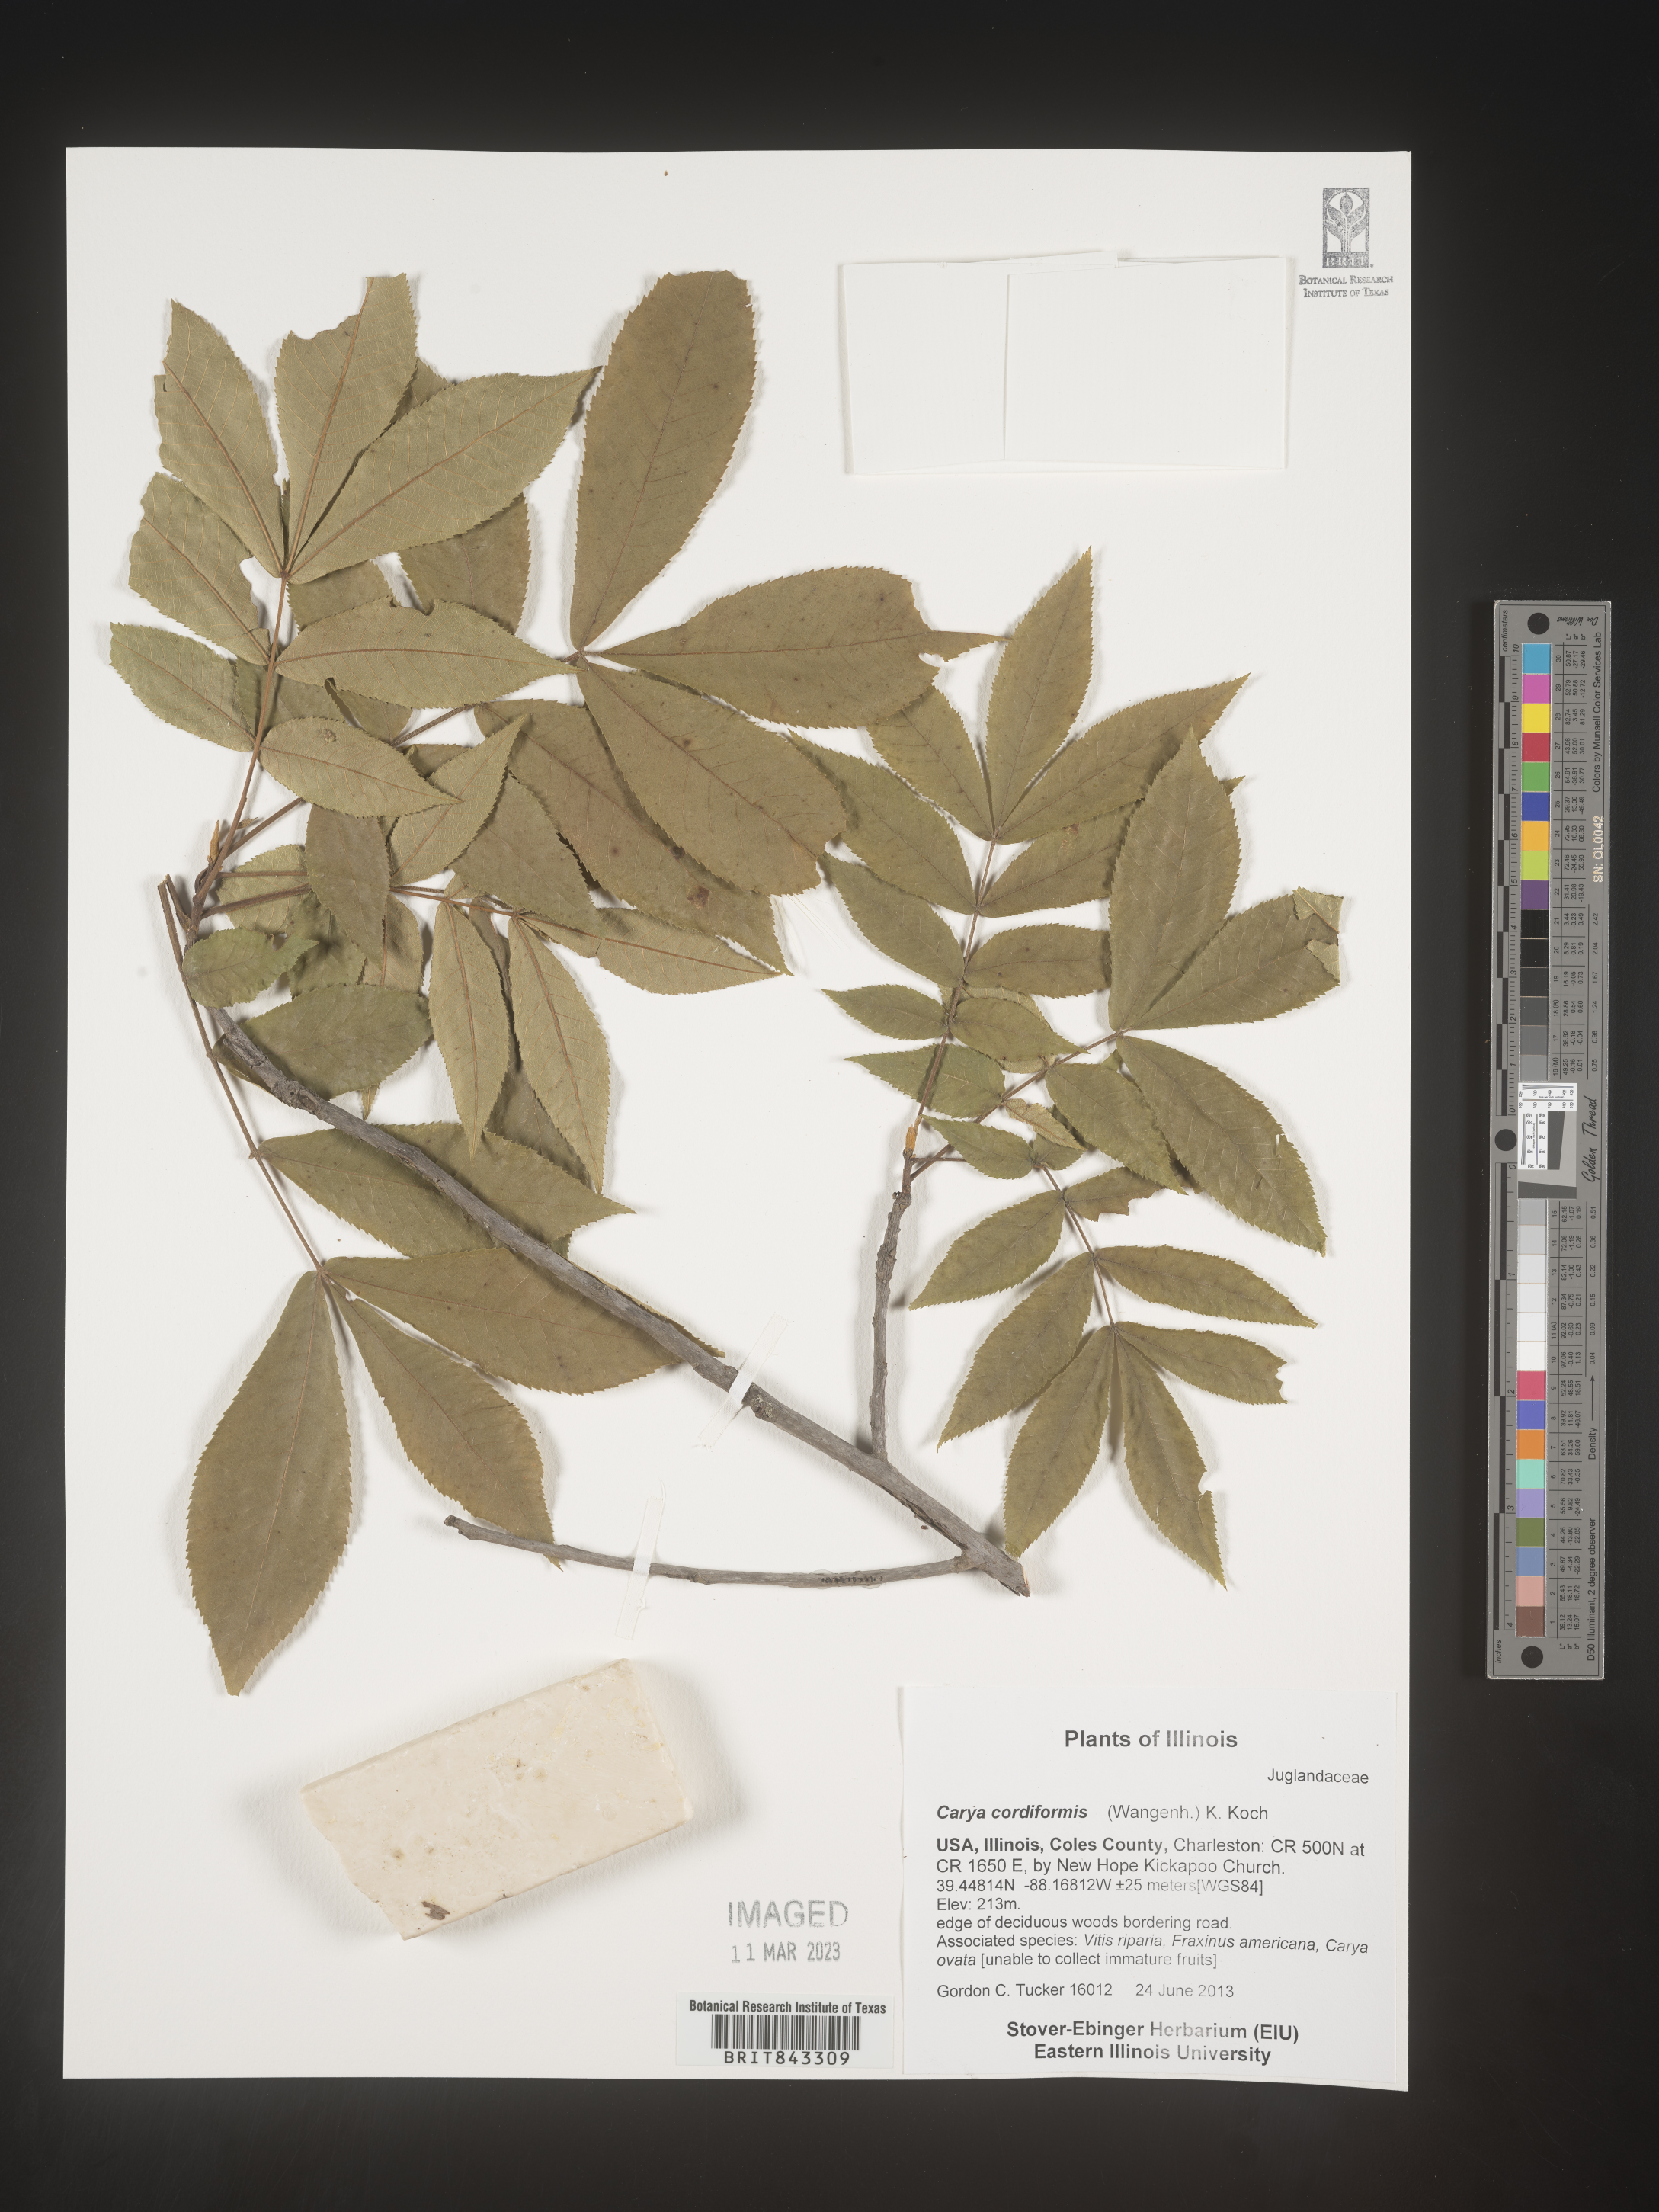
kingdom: Plantae
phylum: Tracheophyta
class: Magnoliopsida
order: Fagales
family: Juglandaceae
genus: Carya
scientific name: Carya cordiformis
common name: Bitternut hickory
